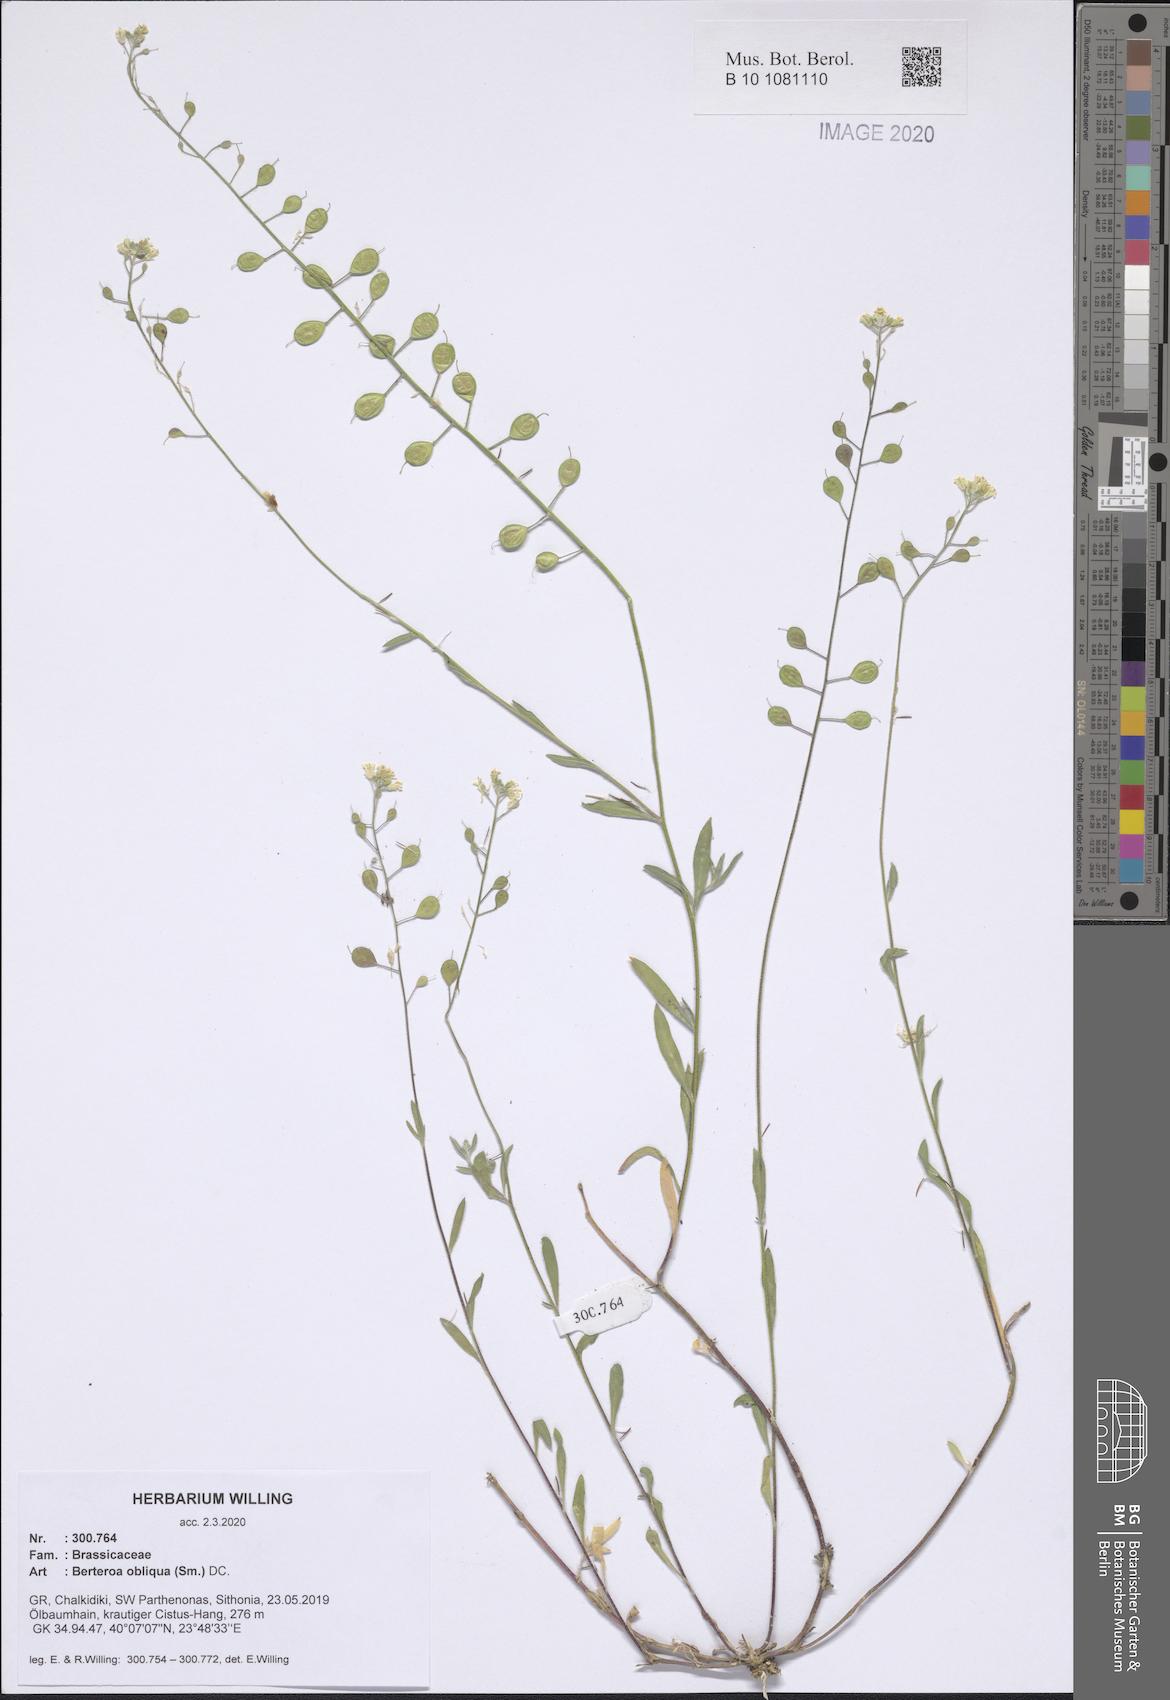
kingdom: Plantae
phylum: Tracheophyta
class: Magnoliopsida
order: Brassicales
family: Brassicaceae
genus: Berteroa
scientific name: Berteroa obliqua
